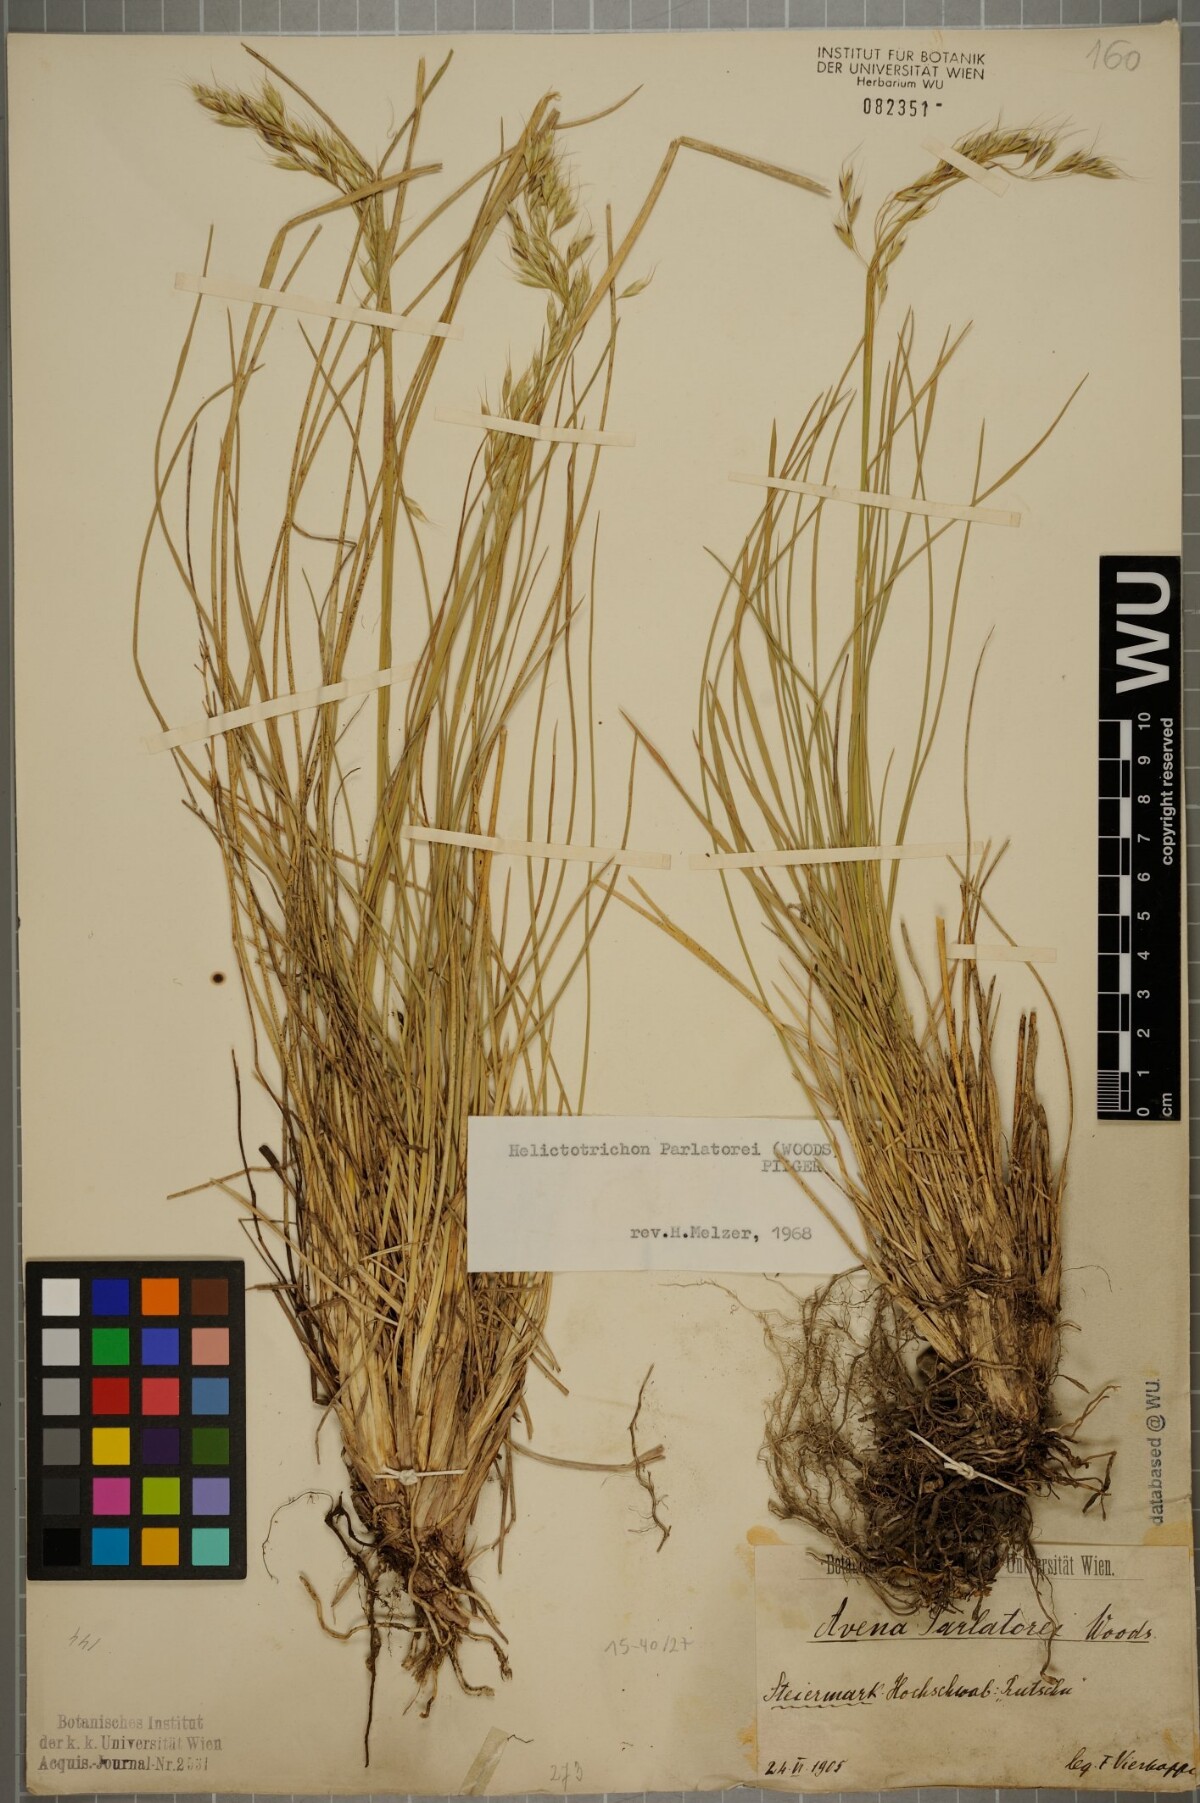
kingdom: Plantae
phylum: Tracheophyta
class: Liliopsida
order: Poales
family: Poaceae
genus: Helictotrichon
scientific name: Helictotrichon parlatorei
